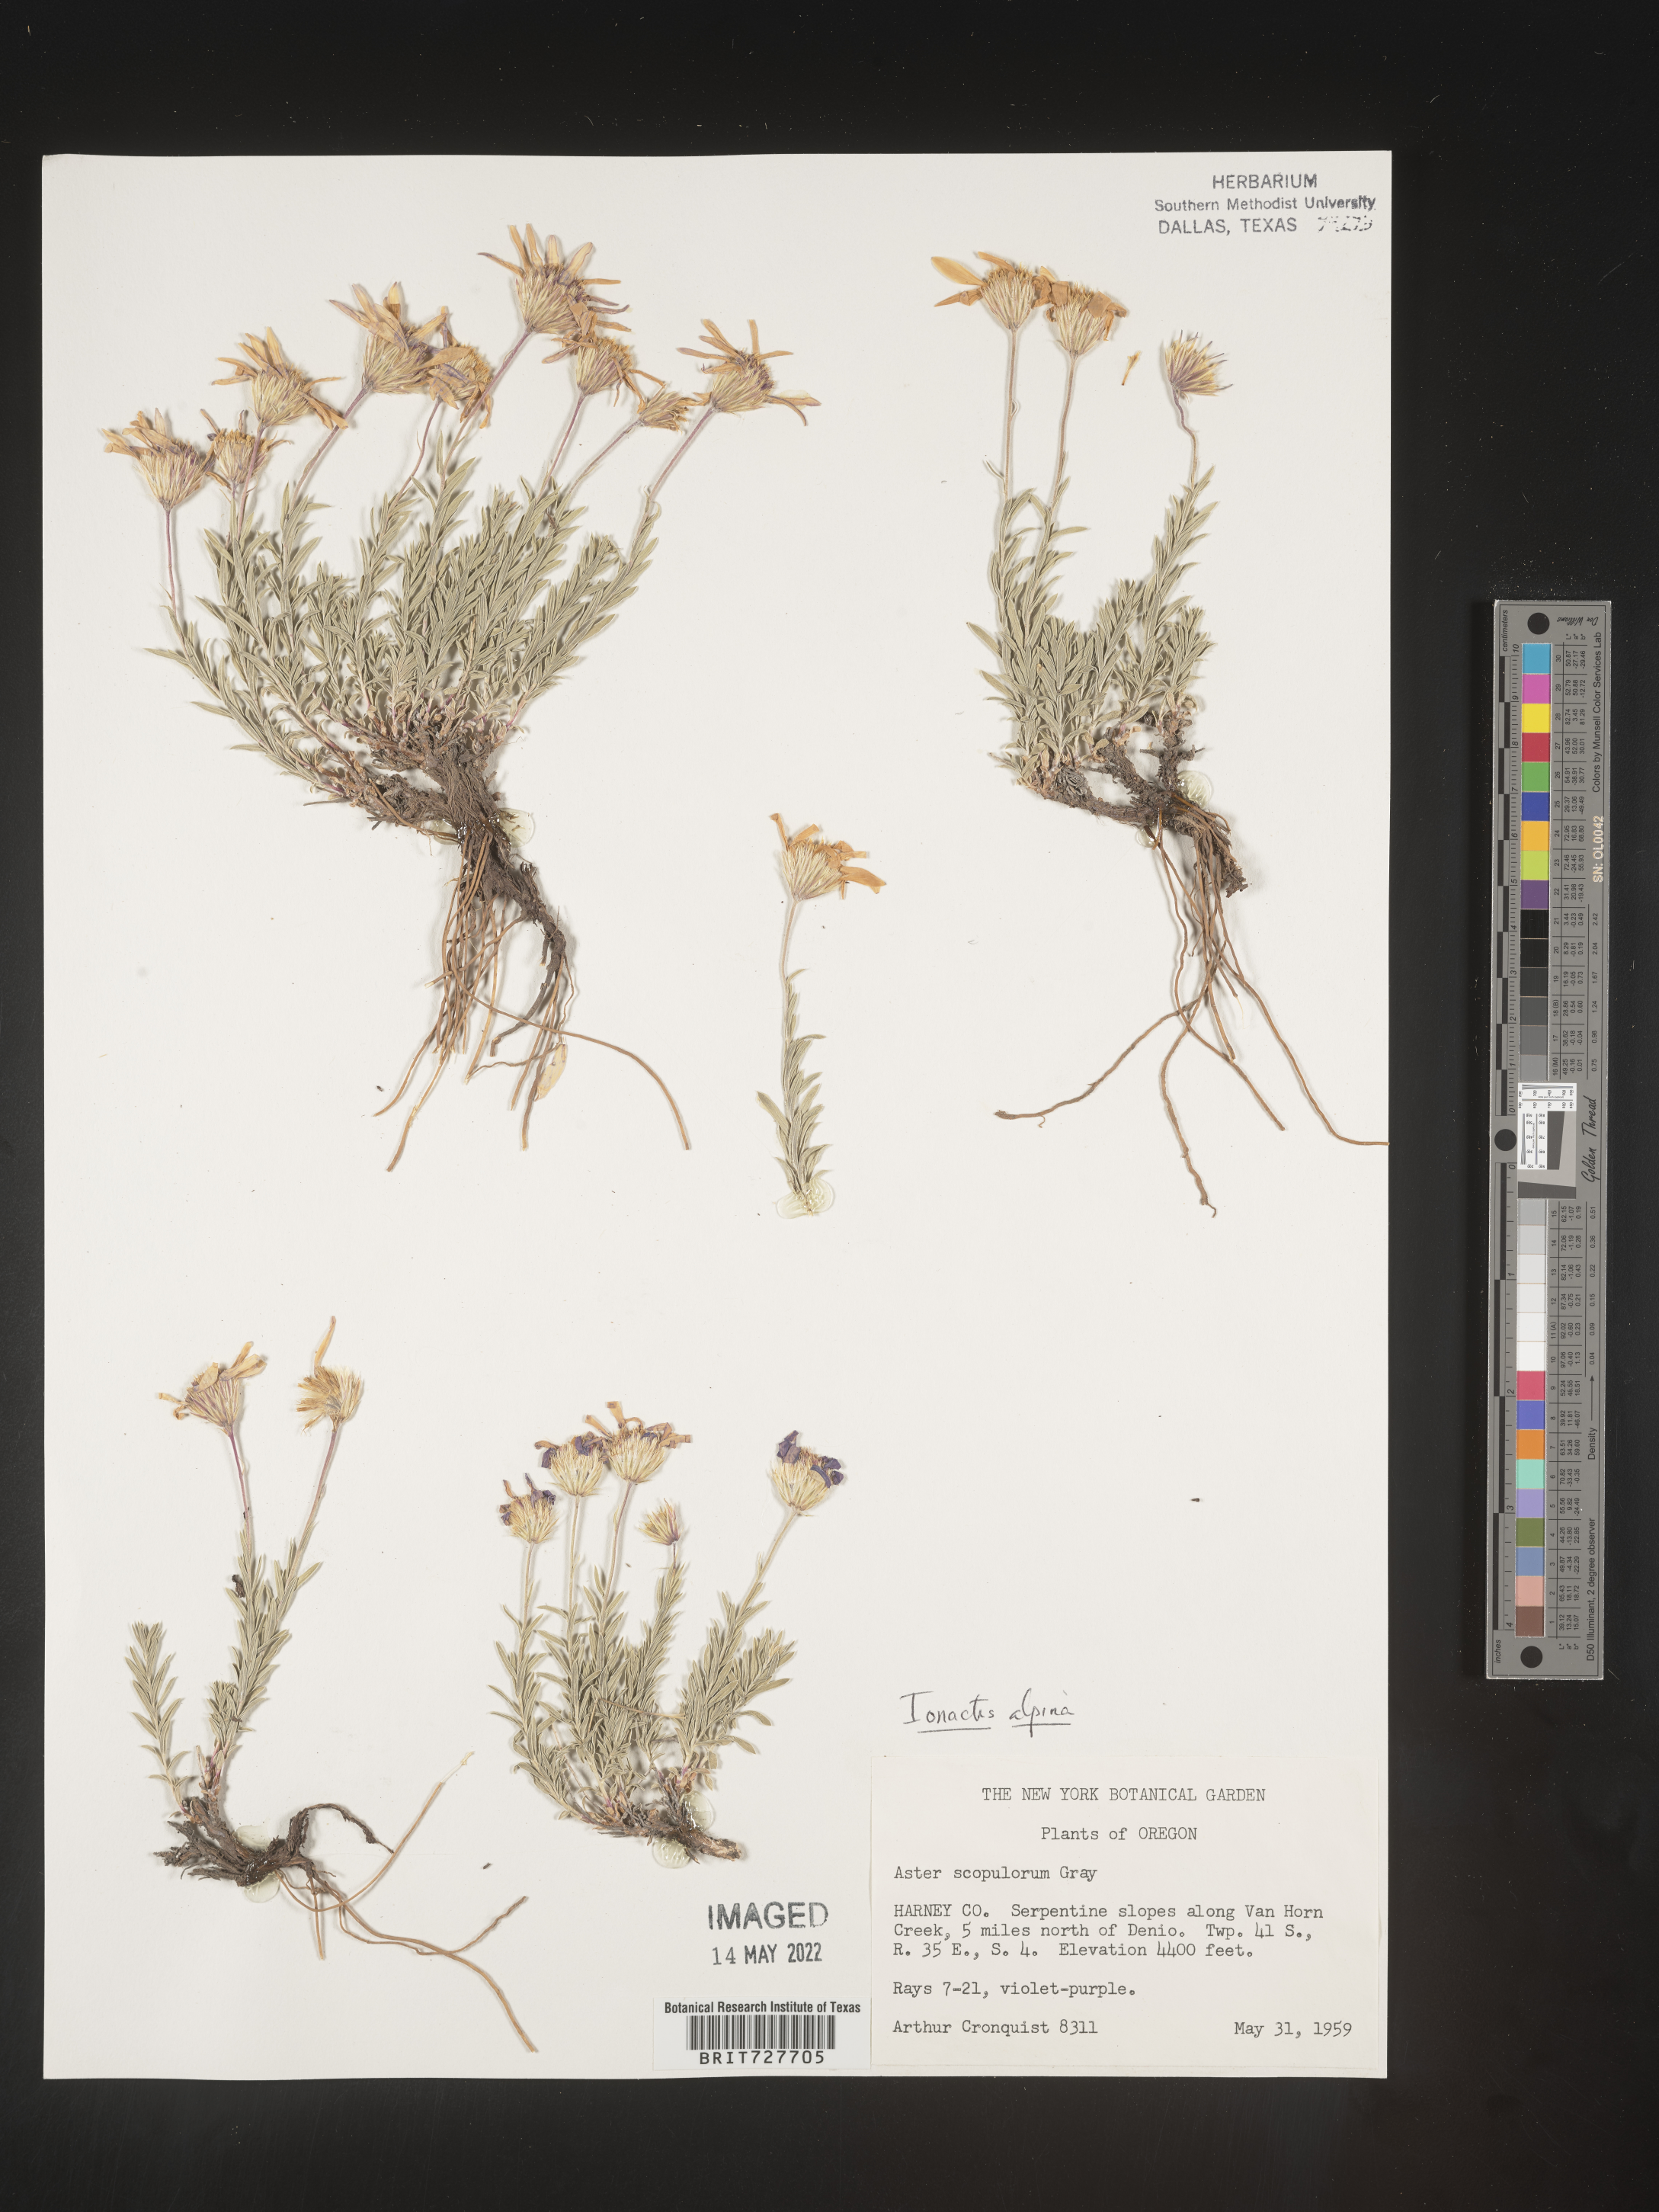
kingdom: Plantae
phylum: Tracheophyta
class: Magnoliopsida
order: Asterales
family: Asteraceae
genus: Ionactis
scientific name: Ionactis alpina
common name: Crag aster
